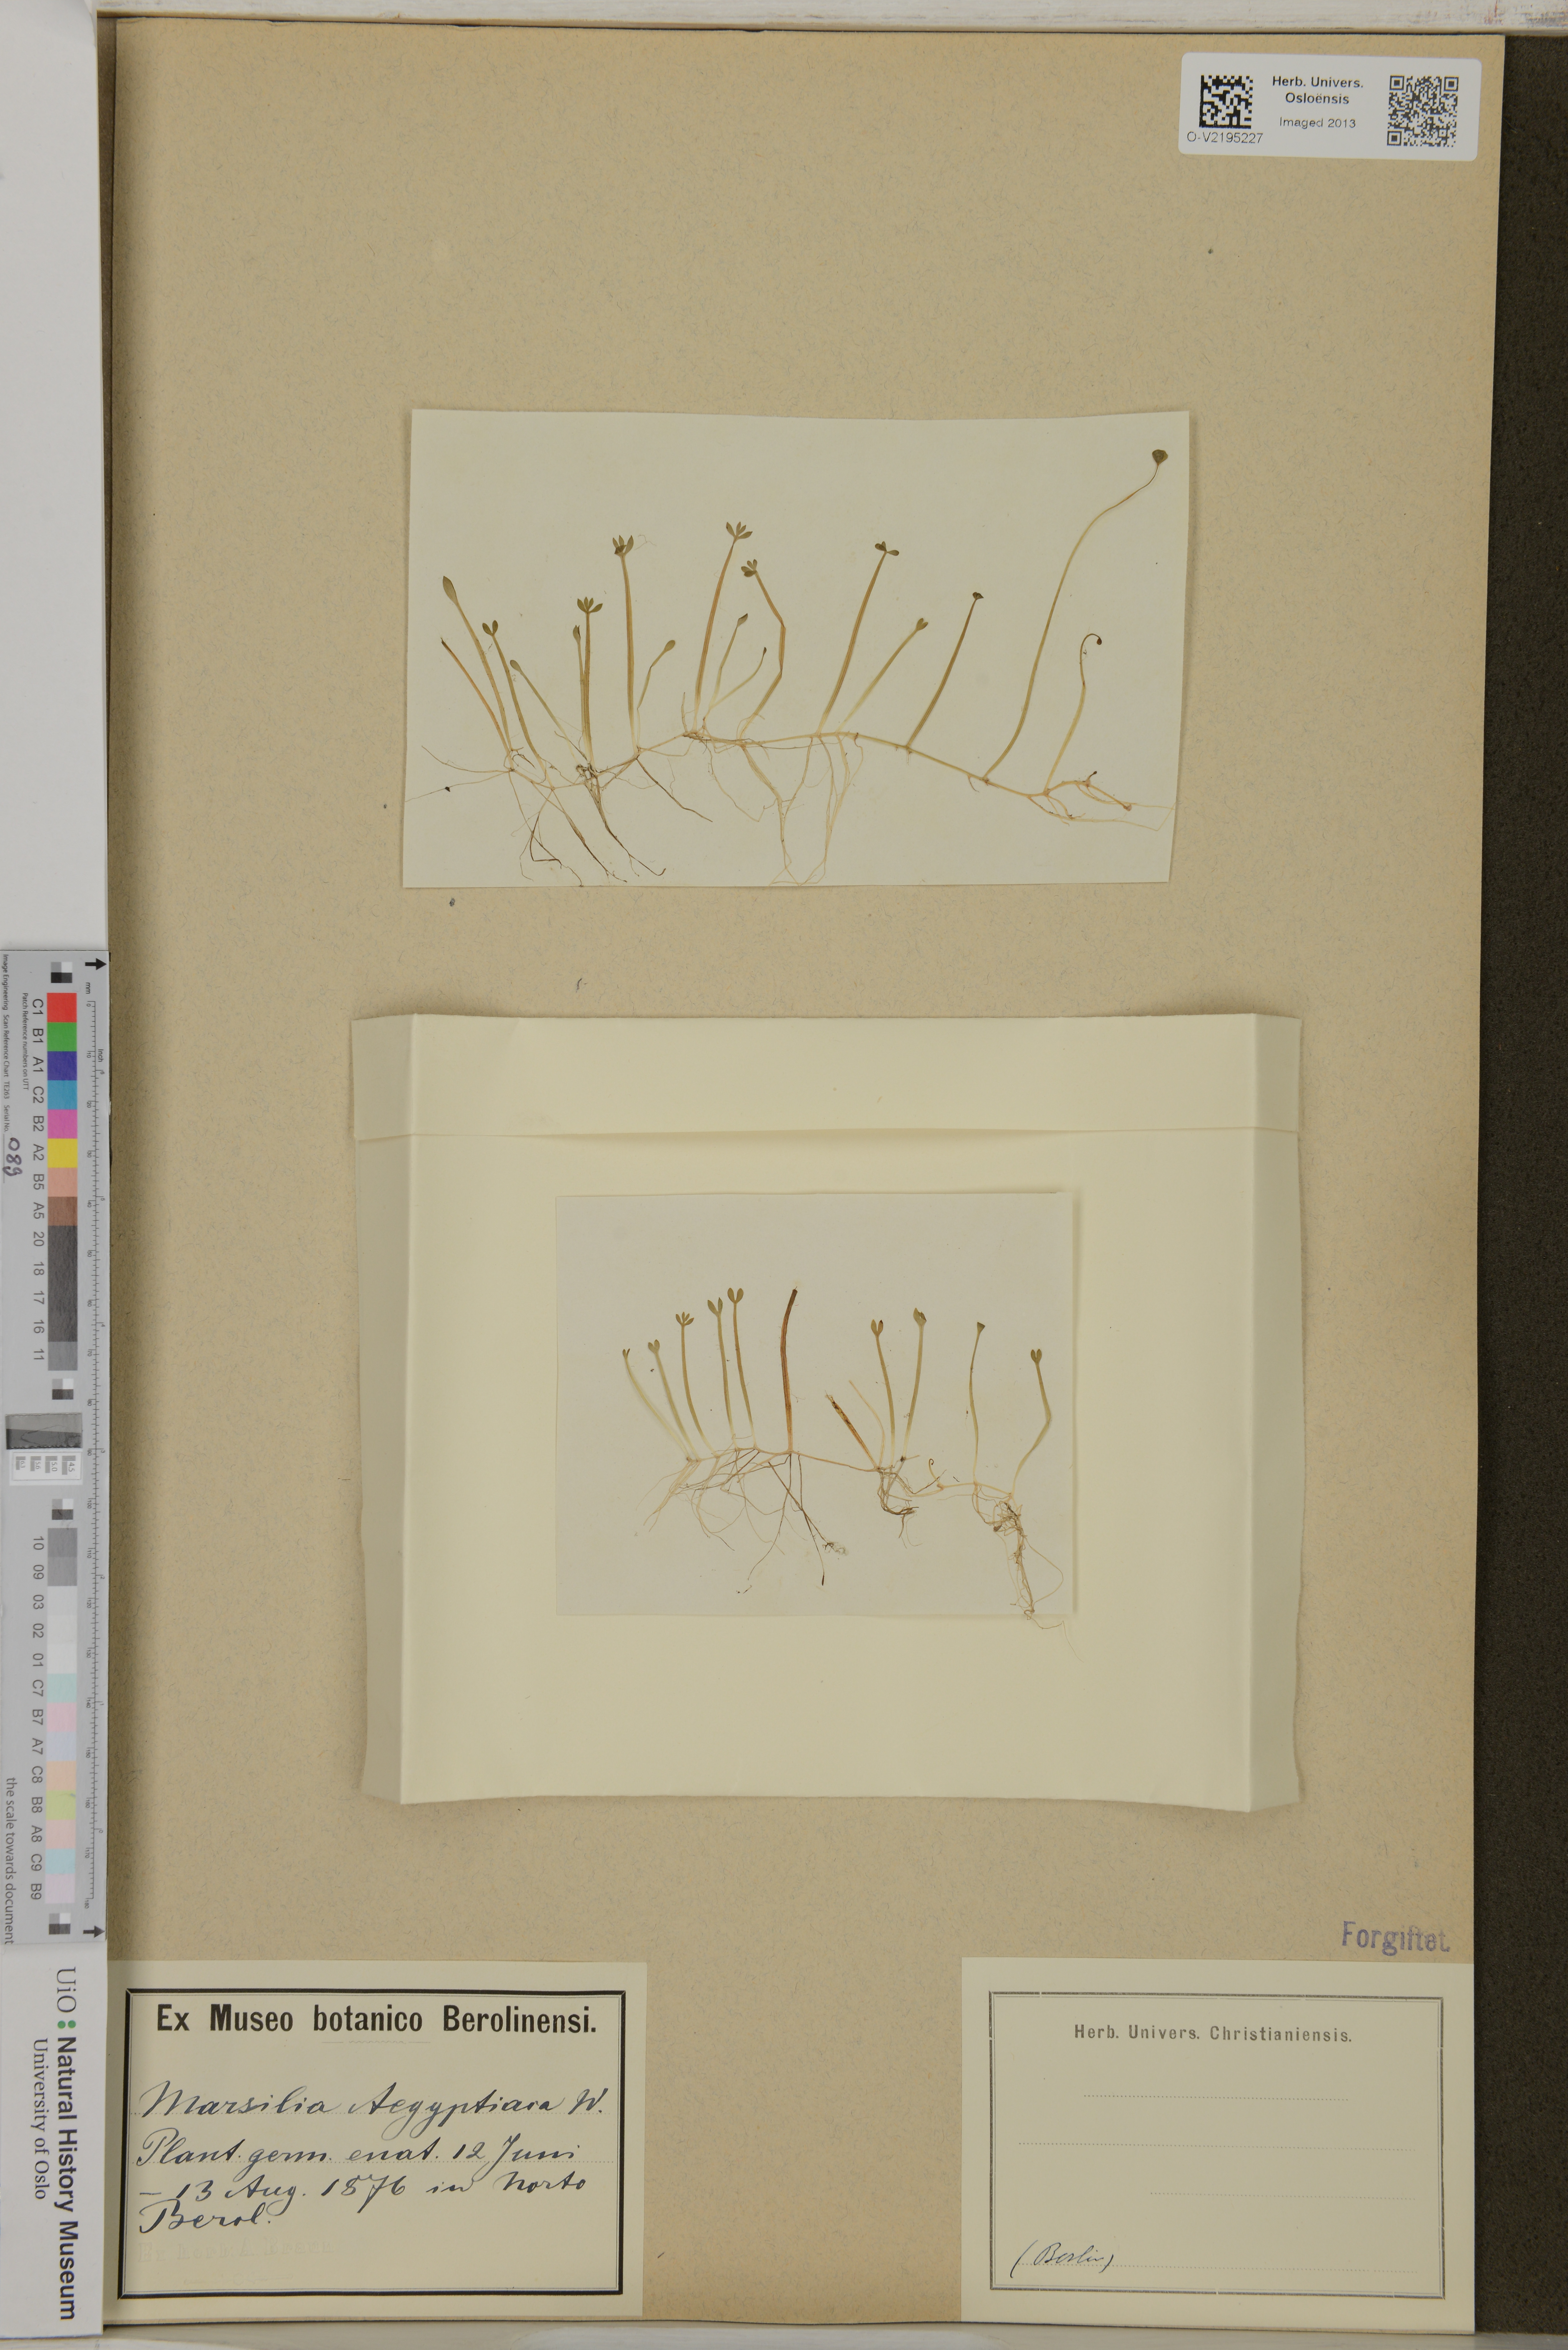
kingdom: Plantae
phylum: Tracheophyta
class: Polypodiopsida
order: Salviniales
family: Marsileaceae
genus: Marsilea
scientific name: Marsilea aegyptiaca
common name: Egyptian water-clover
